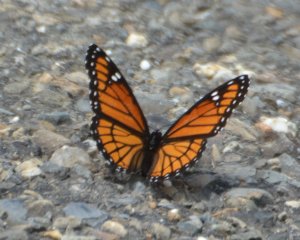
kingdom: Animalia
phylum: Arthropoda
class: Insecta
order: Lepidoptera
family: Nymphalidae
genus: Limenitis
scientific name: Limenitis archippus
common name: Viceroy
